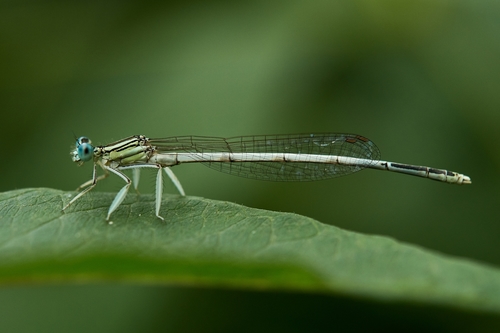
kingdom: Animalia
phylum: Arthropoda
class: Insecta
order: Odonata
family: Platycnemididae
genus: Platycnemis
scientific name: Platycnemis latipes
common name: White featherleg
